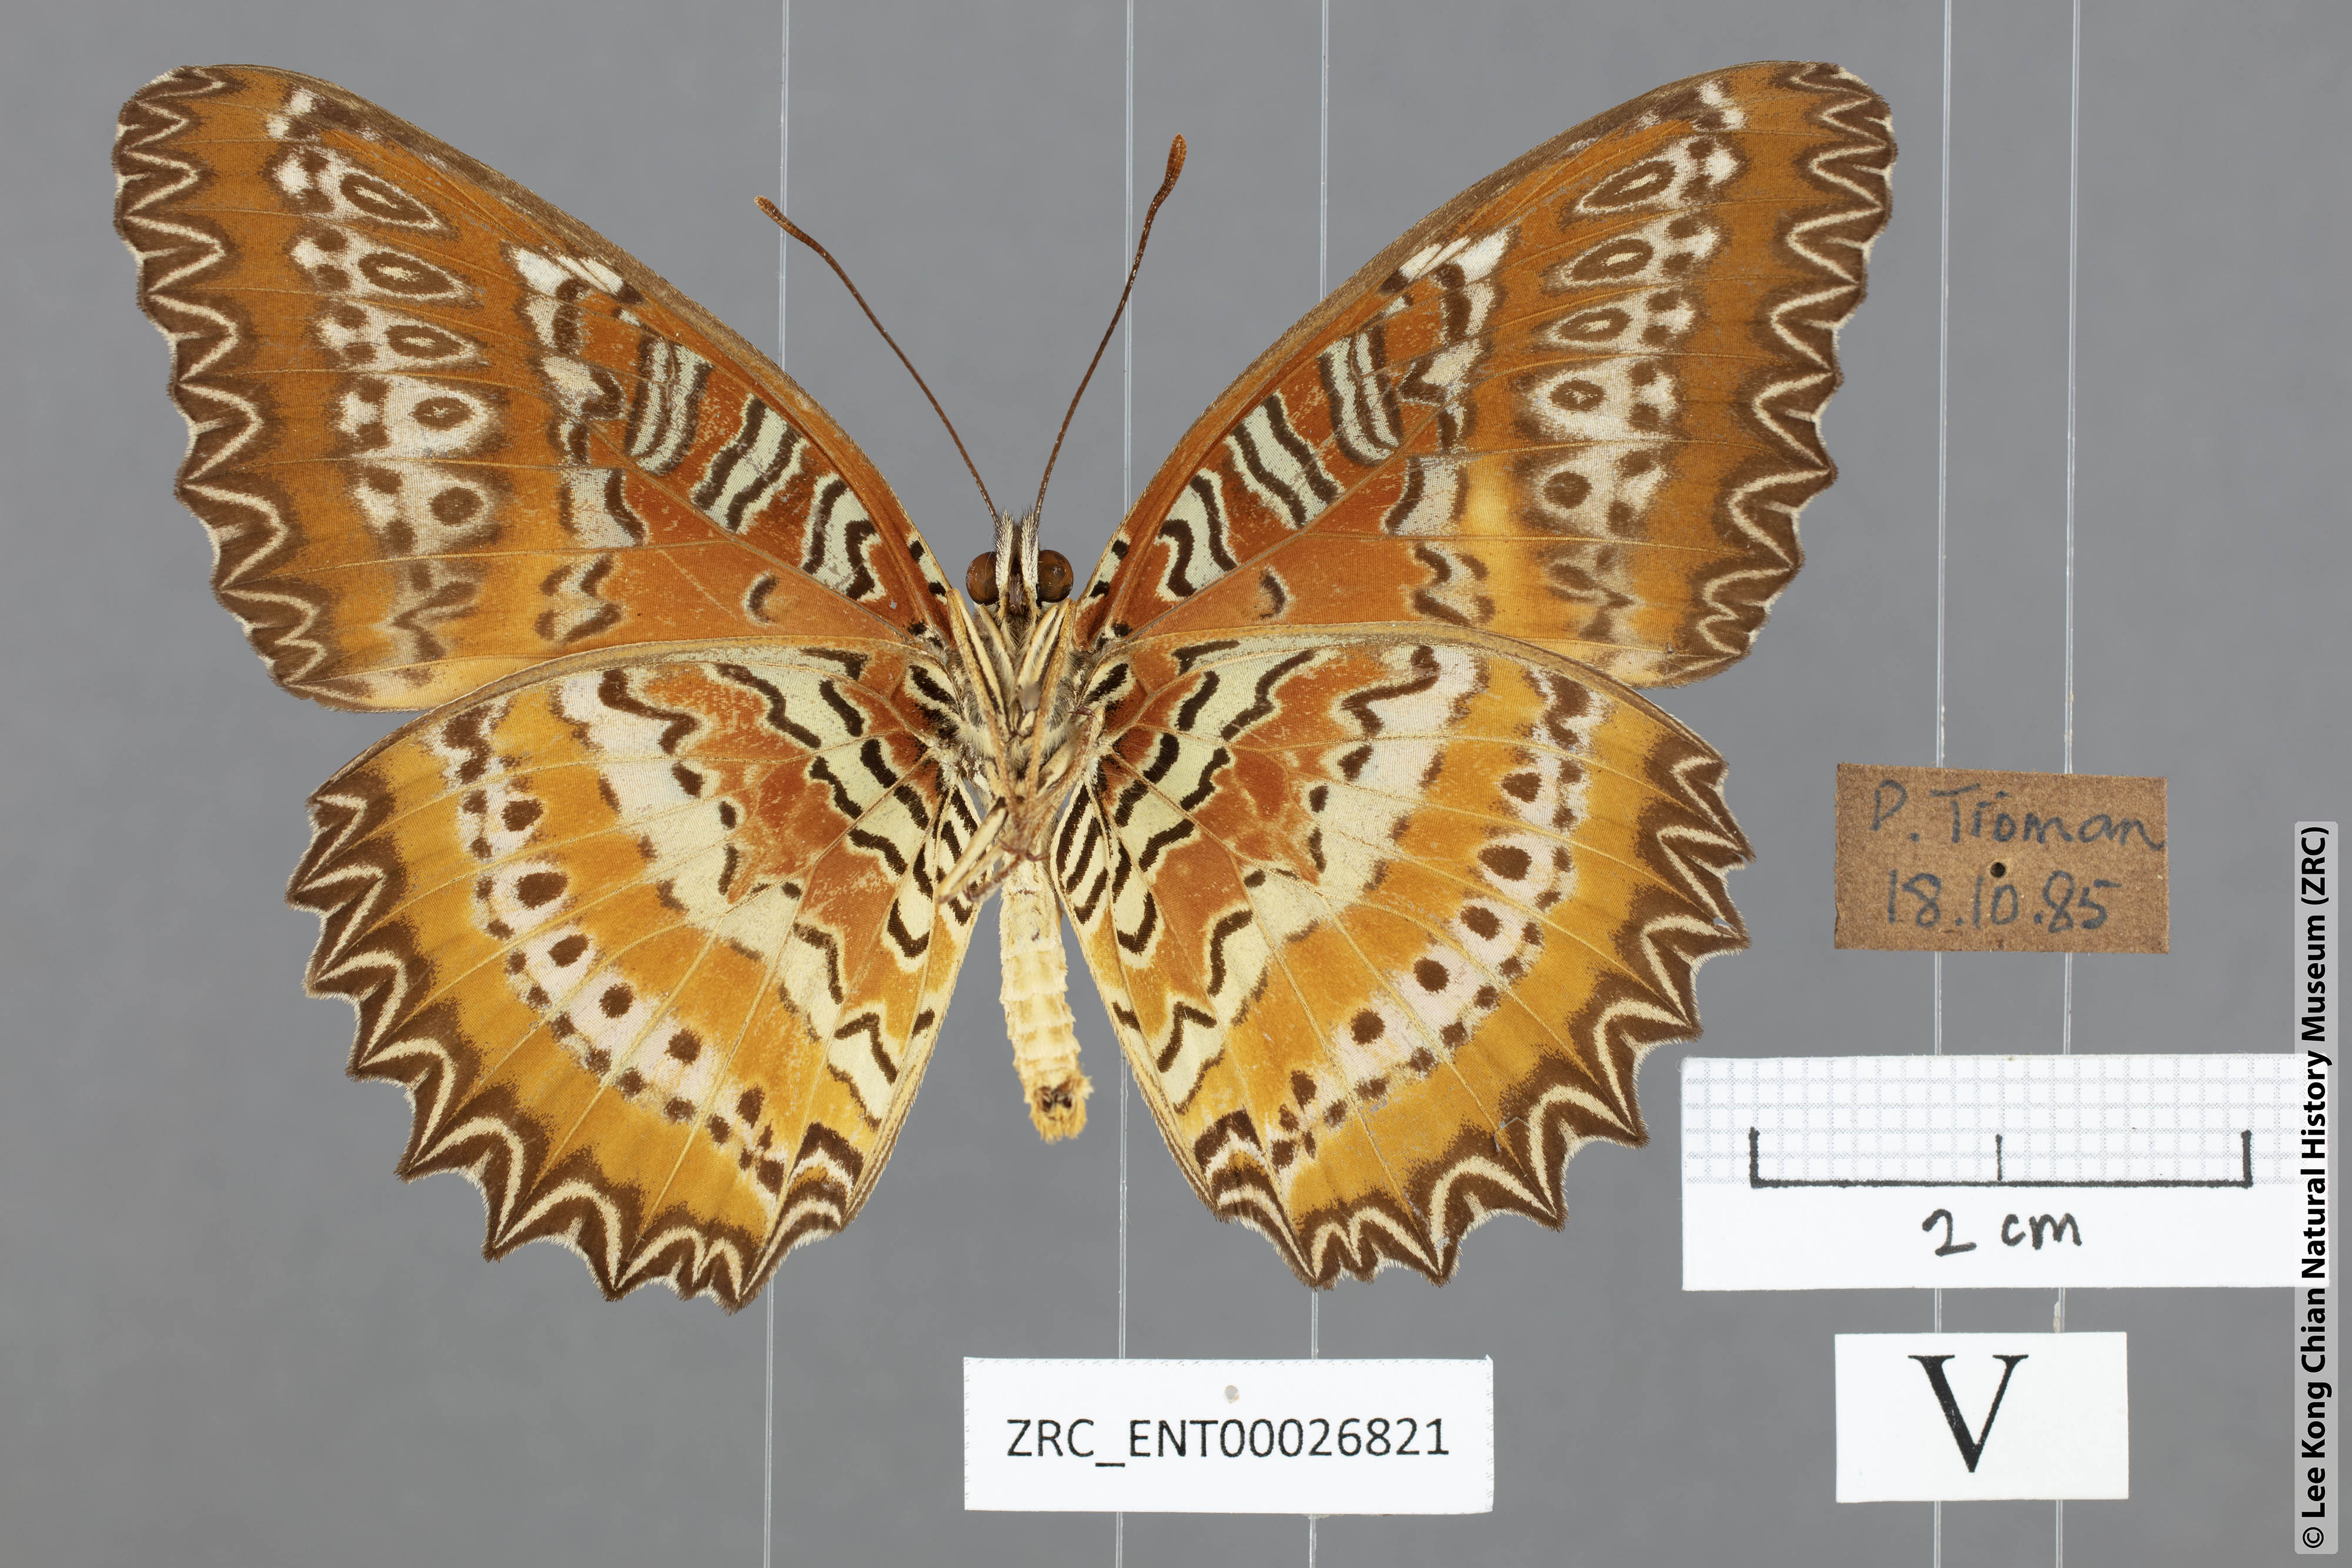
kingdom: Animalia
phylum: Arthropoda
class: Insecta
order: Lepidoptera
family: Nymphalidae
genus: Cethosia
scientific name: Cethosia biblis
